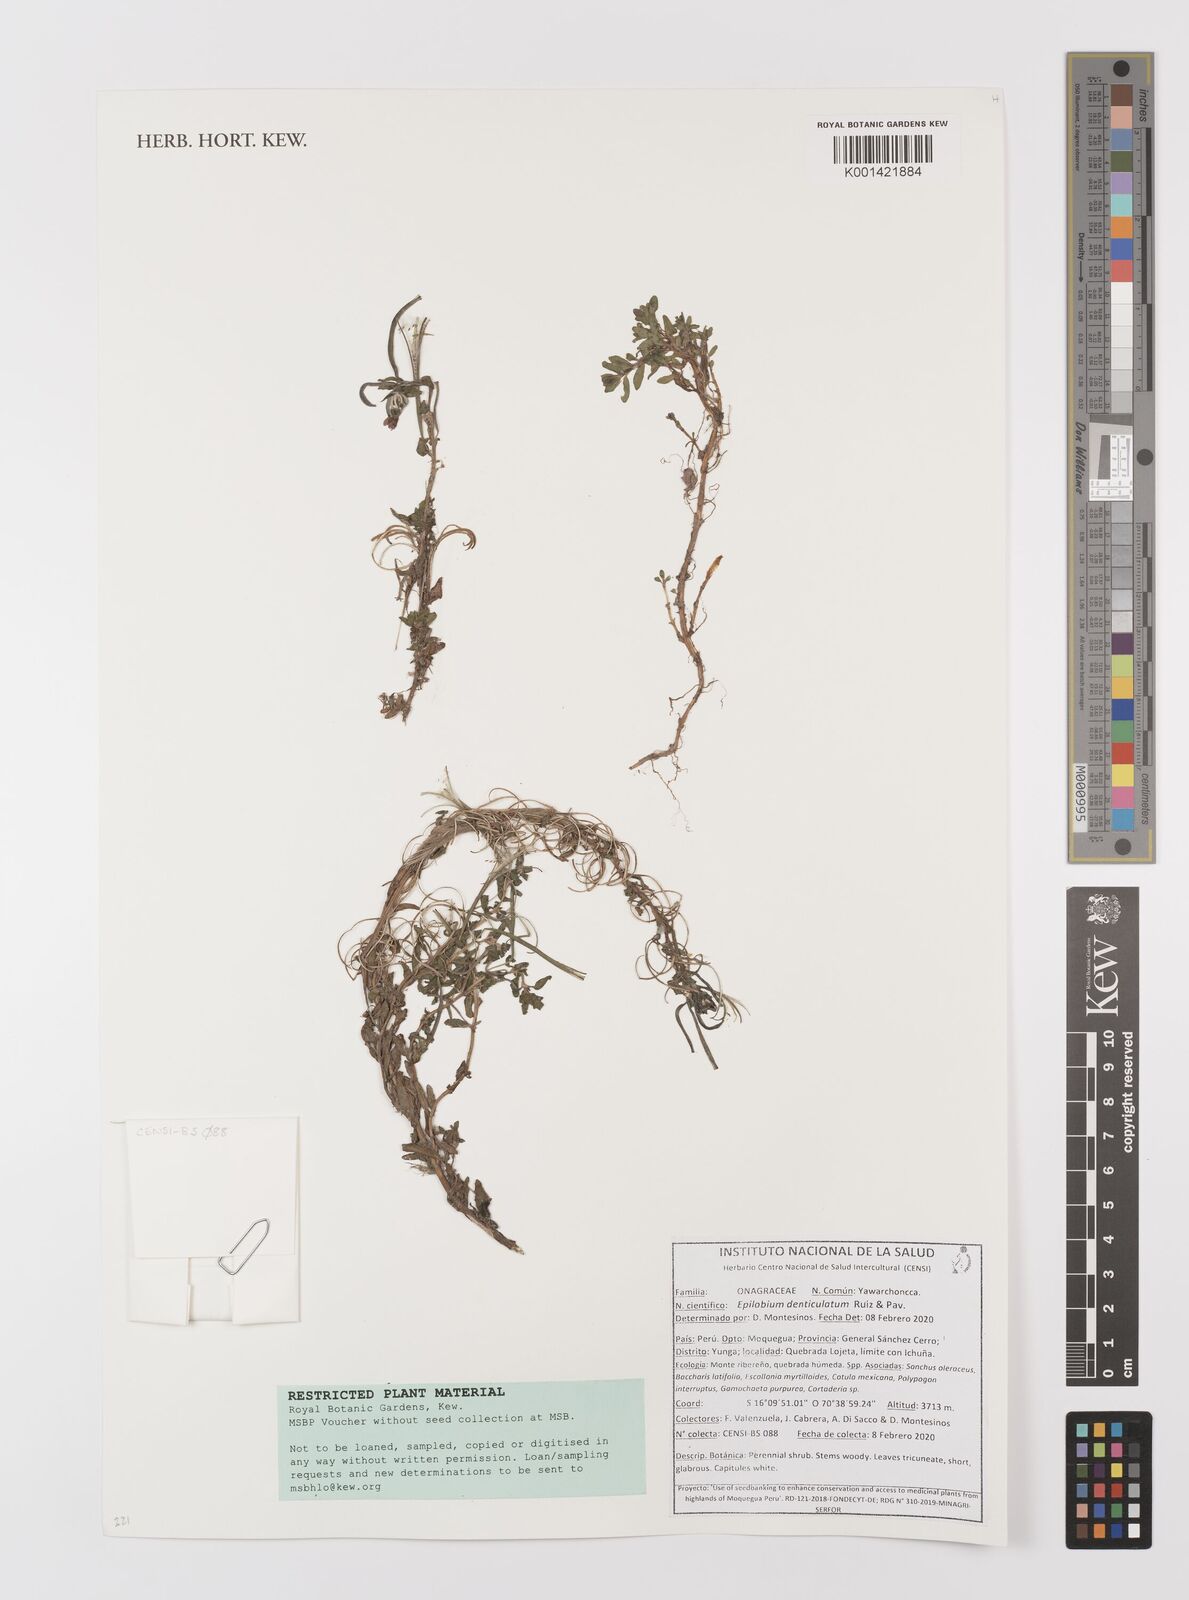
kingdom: Plantae
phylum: Tracheophyta
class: Magnoliopsida
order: Myrtales
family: Onagraceae
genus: Epilobium
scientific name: Epilobium denticulatum
